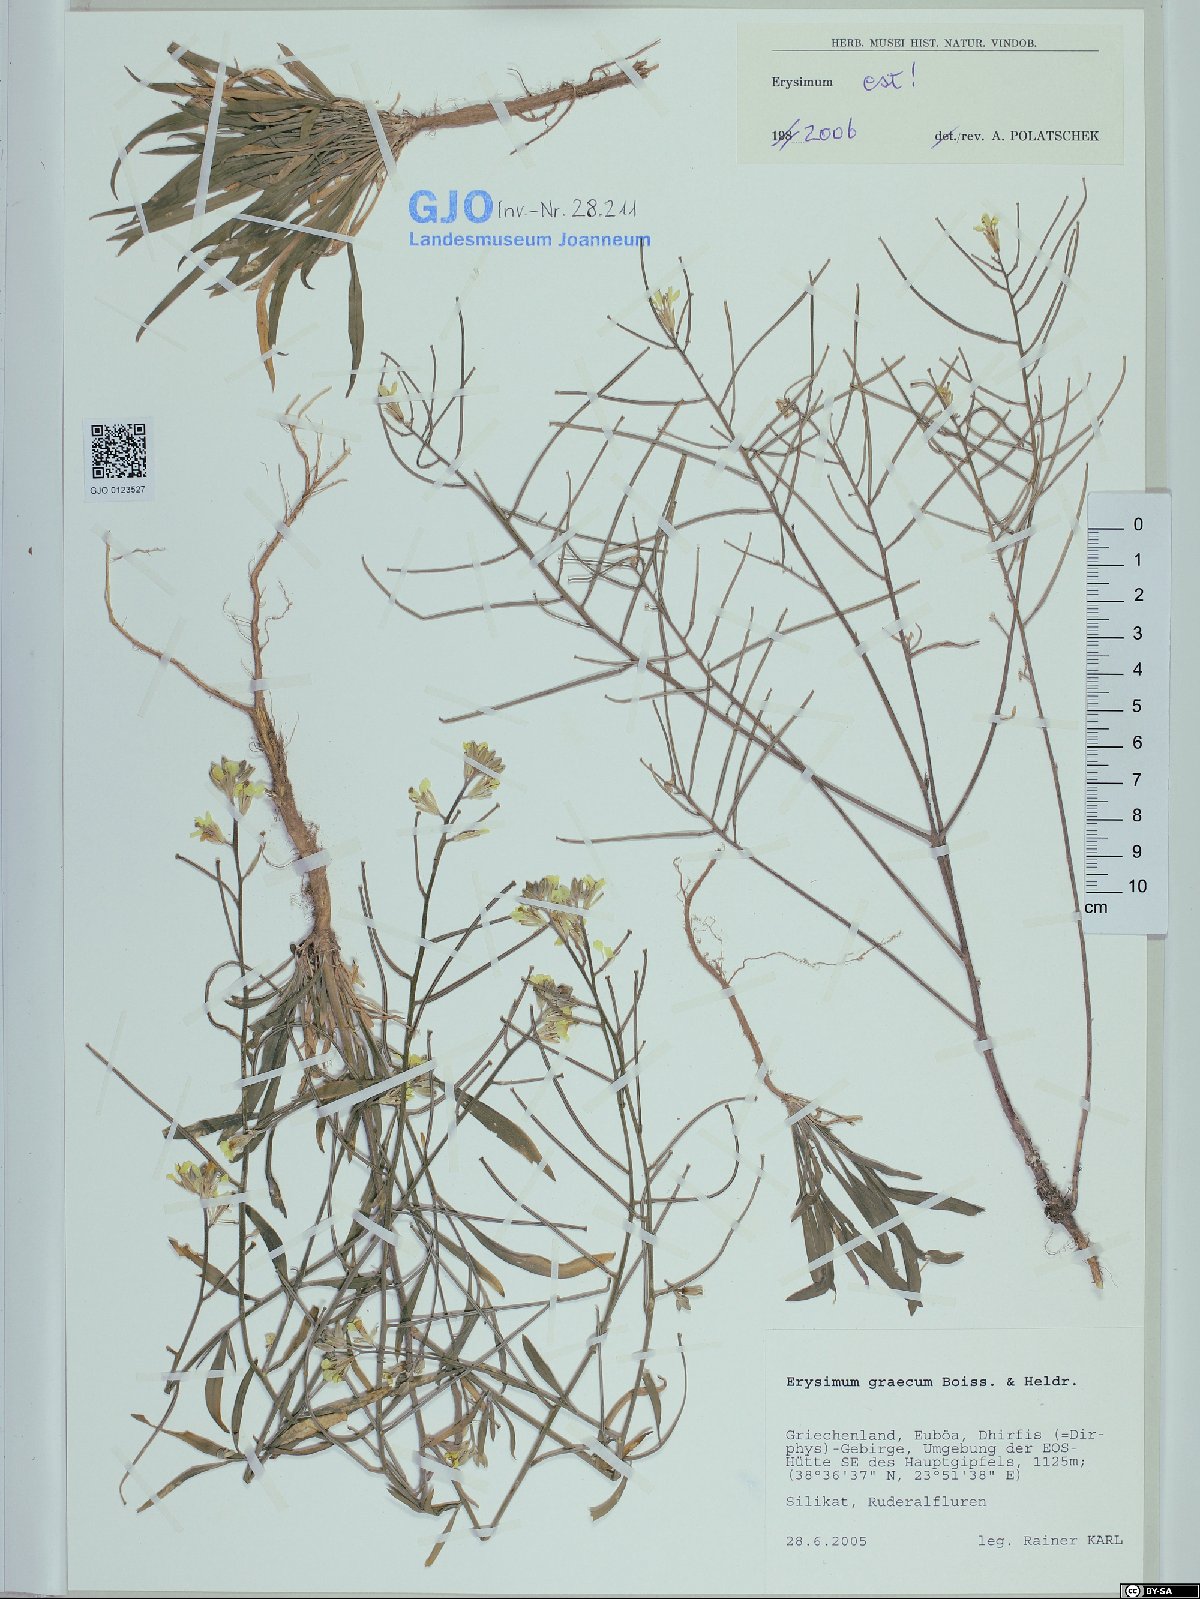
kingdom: Plantae
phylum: Tracheophyta
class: Magnoliopsida
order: Brassicales
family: Brassicaceae
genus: Erysimum
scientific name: Erysimum graecum
